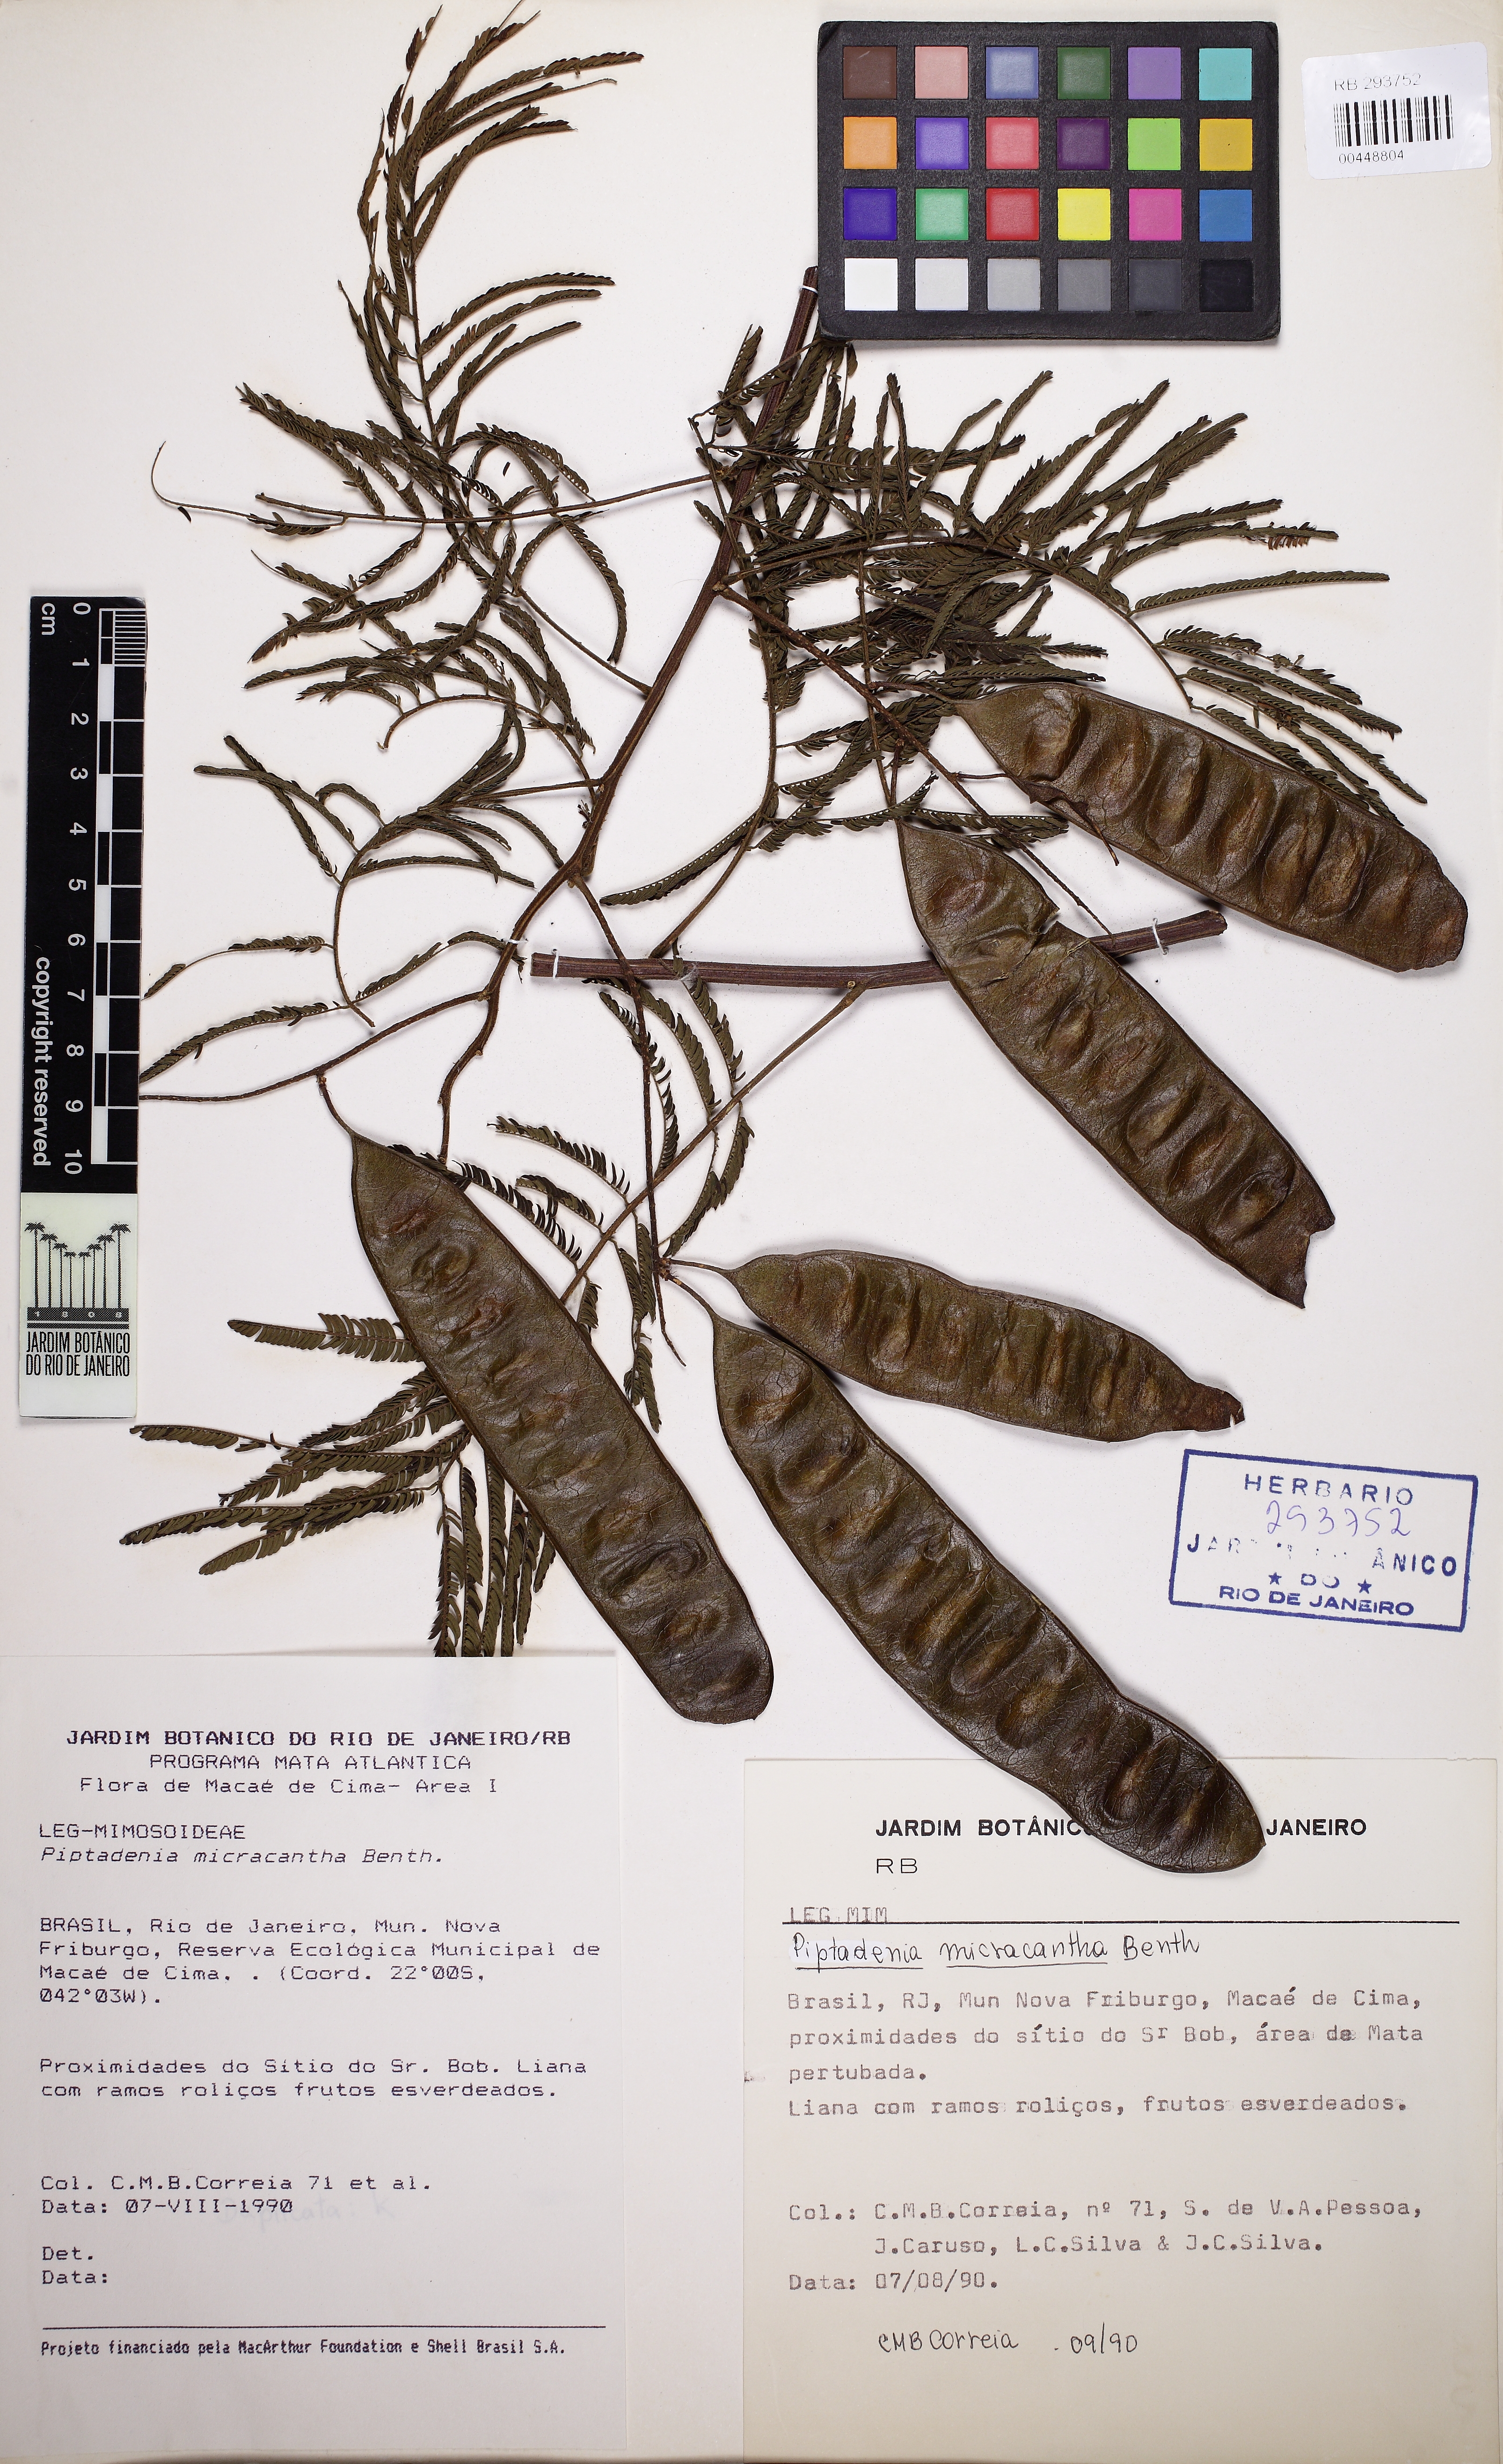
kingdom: Plantae
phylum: Tracheophyta
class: Magnoliopsida
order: Fabales
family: Fabaceae
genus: Piptadenia
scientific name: Piptadenia micracantha
